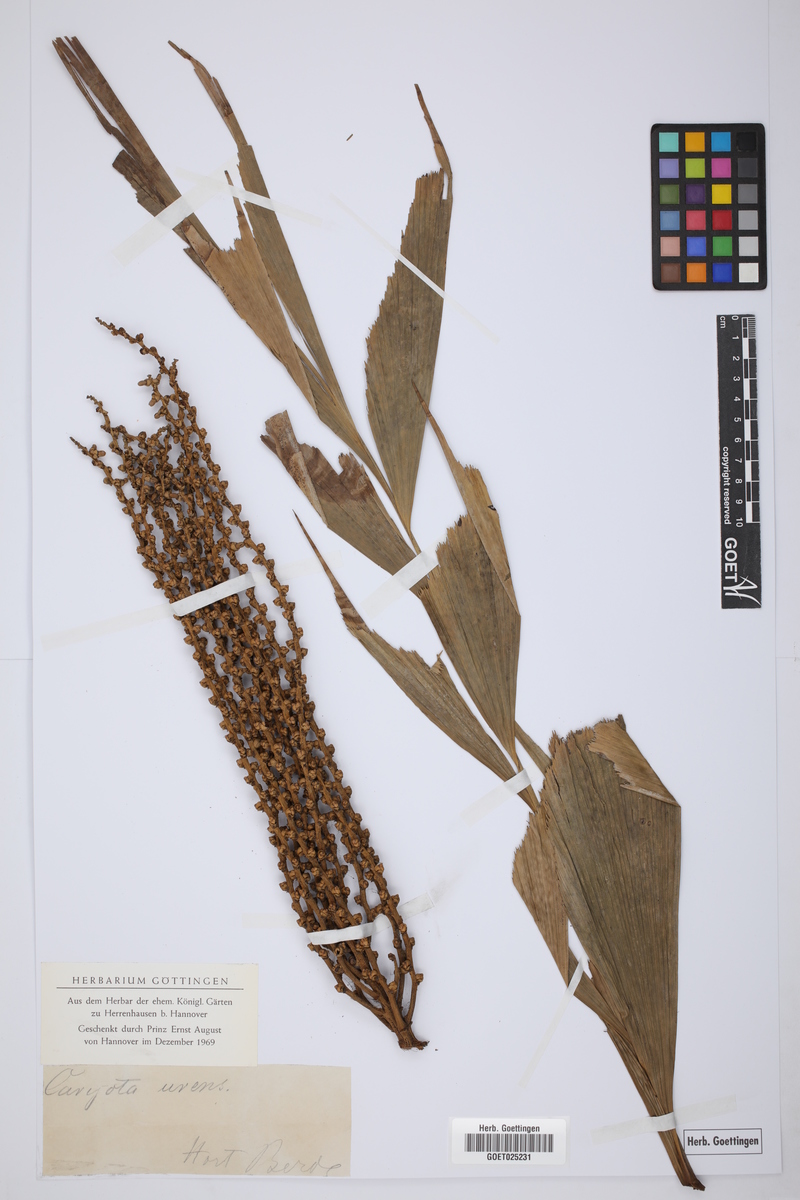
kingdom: Plantae
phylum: Tracheophyta
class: Liliopsida
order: Arecales
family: Arecaceae
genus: Caryota
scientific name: Caryota urens
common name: Jaggery palm
